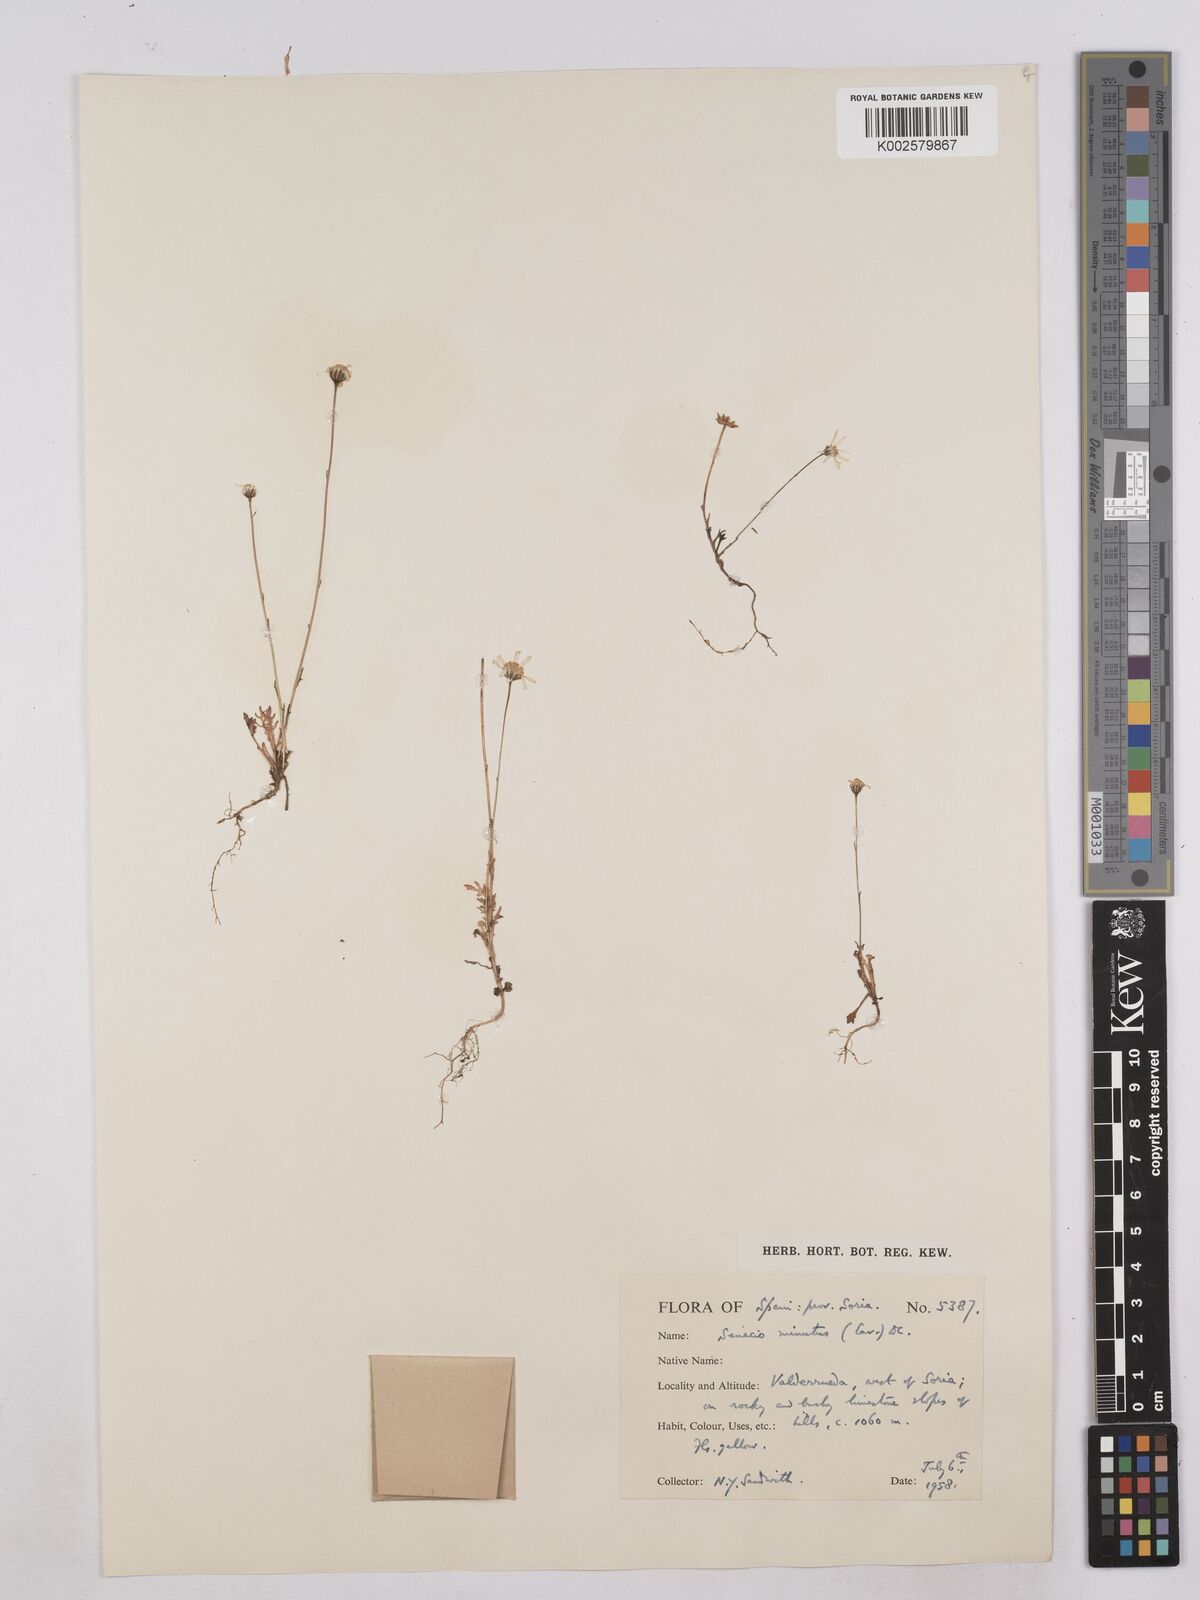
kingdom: Plantae
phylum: Tracheophyta
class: Magnoliopsida
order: Asterales
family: Asteraceae
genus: Jacobaea
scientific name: Jacobaea minuta
